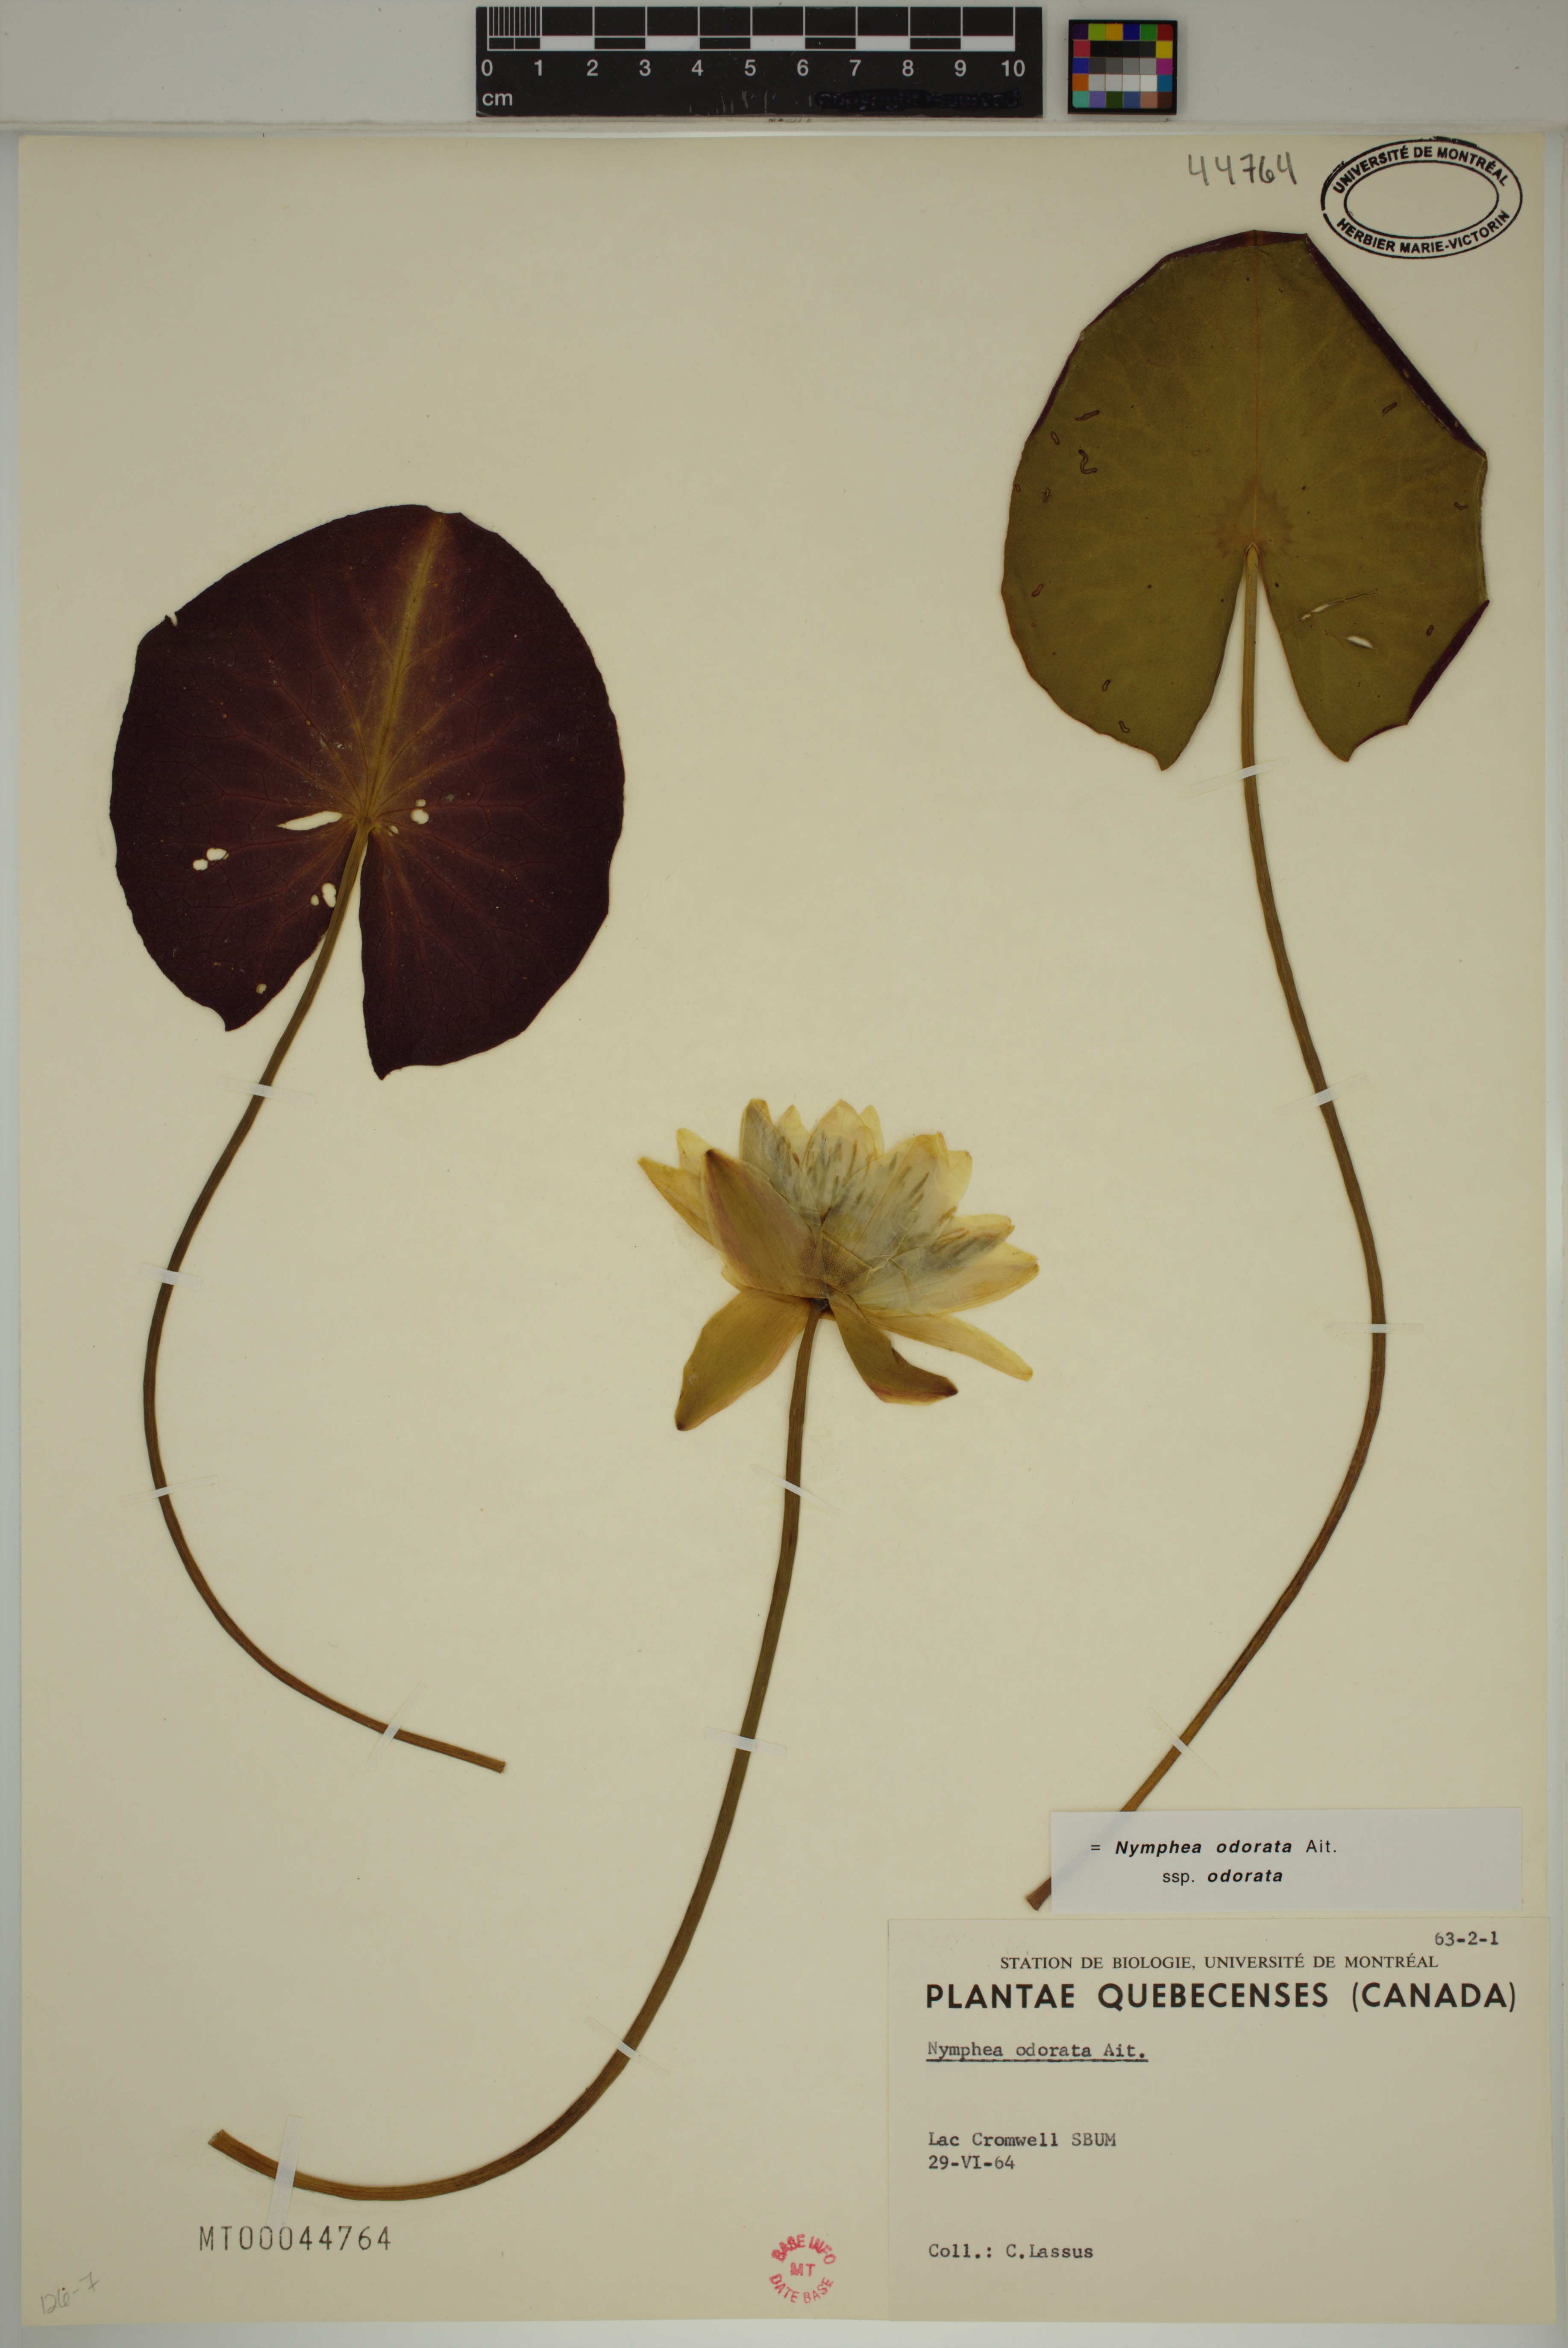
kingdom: Plantae
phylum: Tracheophyta
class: Magnoliopsida
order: Nymphaeales
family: Nymphaeaceae
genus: Nymphaea
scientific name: Nymphaea odorata
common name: Fragrant water-lily
